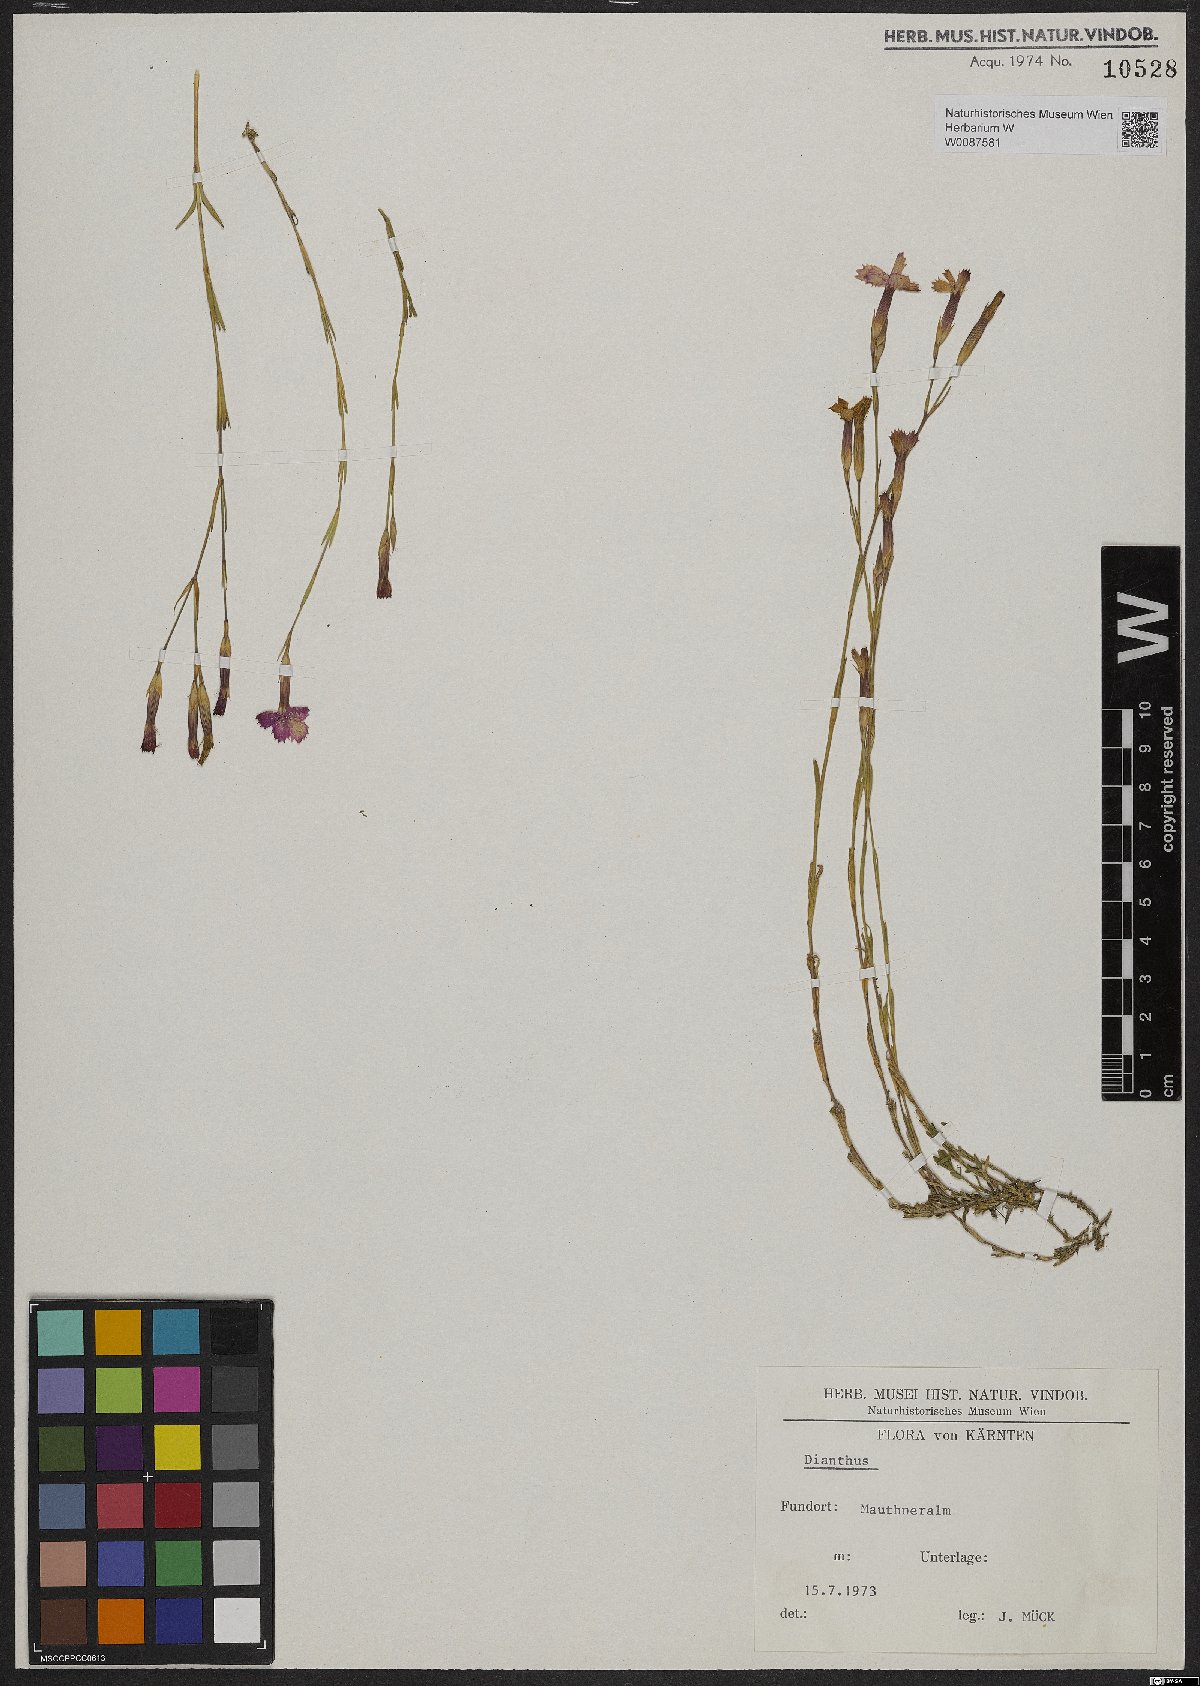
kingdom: Plantae
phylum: Tracheophyta
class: Magnoliopsida
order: Caryophyllales
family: Caryophyllaceae
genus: Dianthus
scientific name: Dianthus deltoides
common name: Maiden pink
